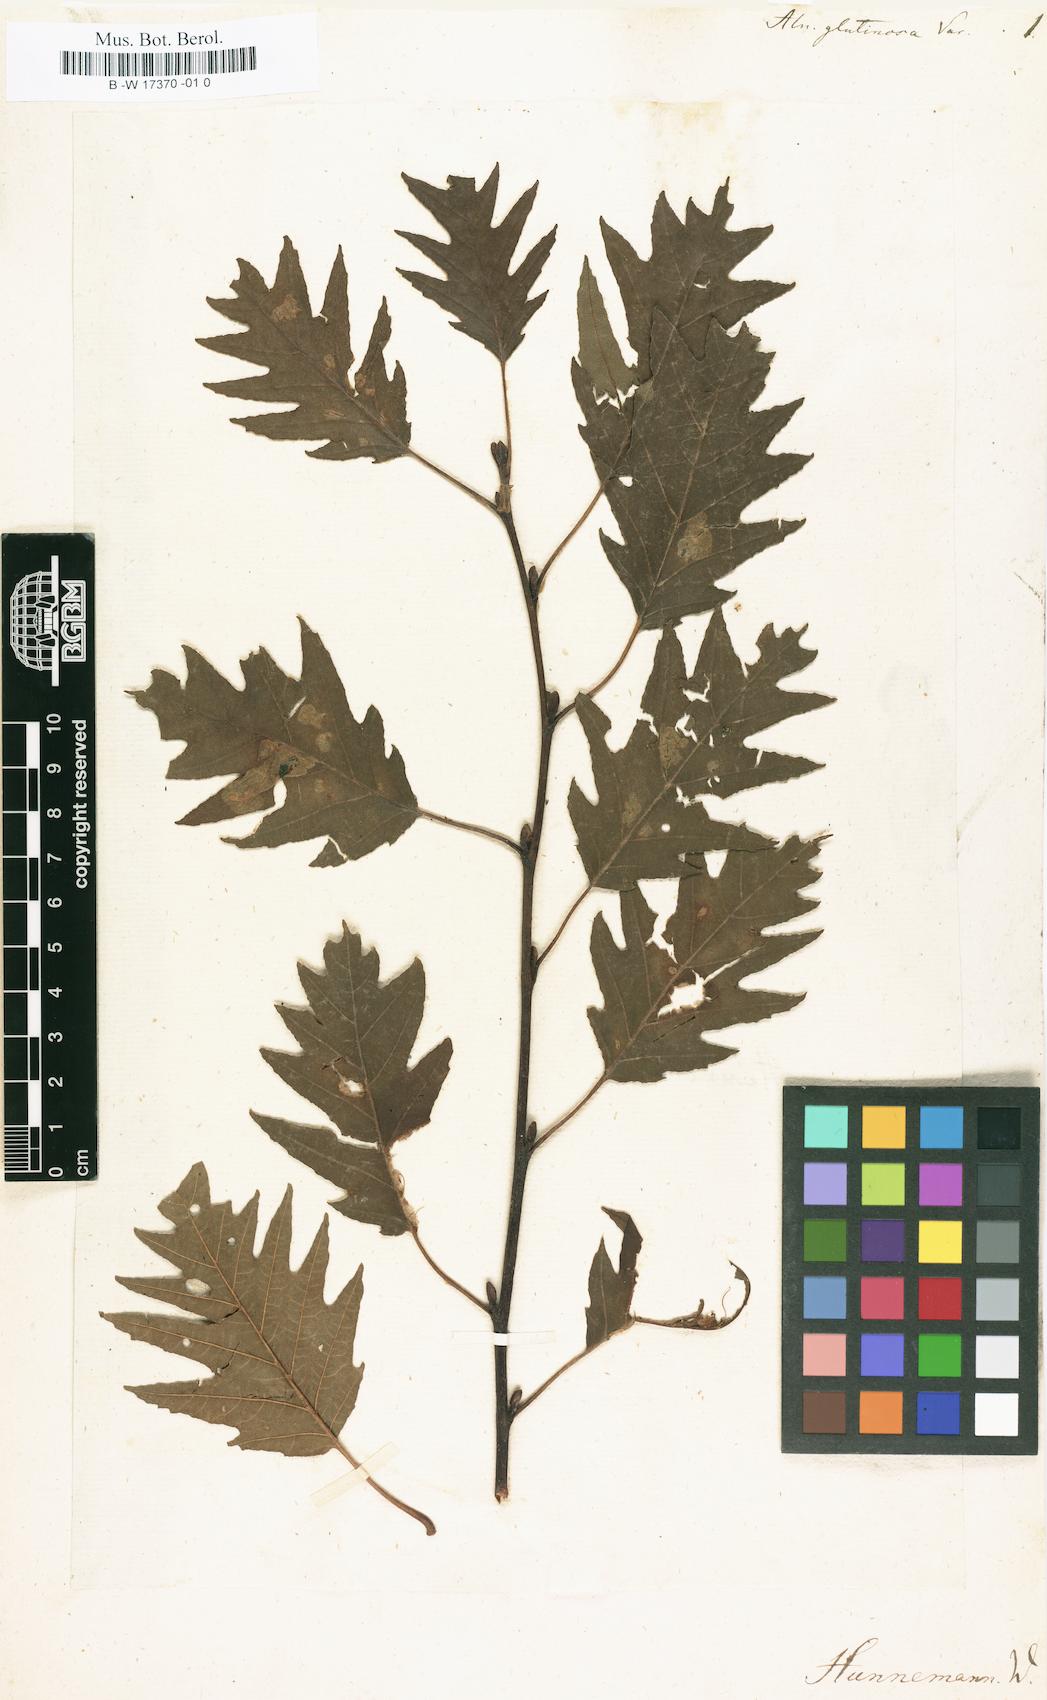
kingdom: Plantae
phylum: Tracheophyta
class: Magnoliopsida
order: Fagales
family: Betulaceae
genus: Betula
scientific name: Betula alnus
